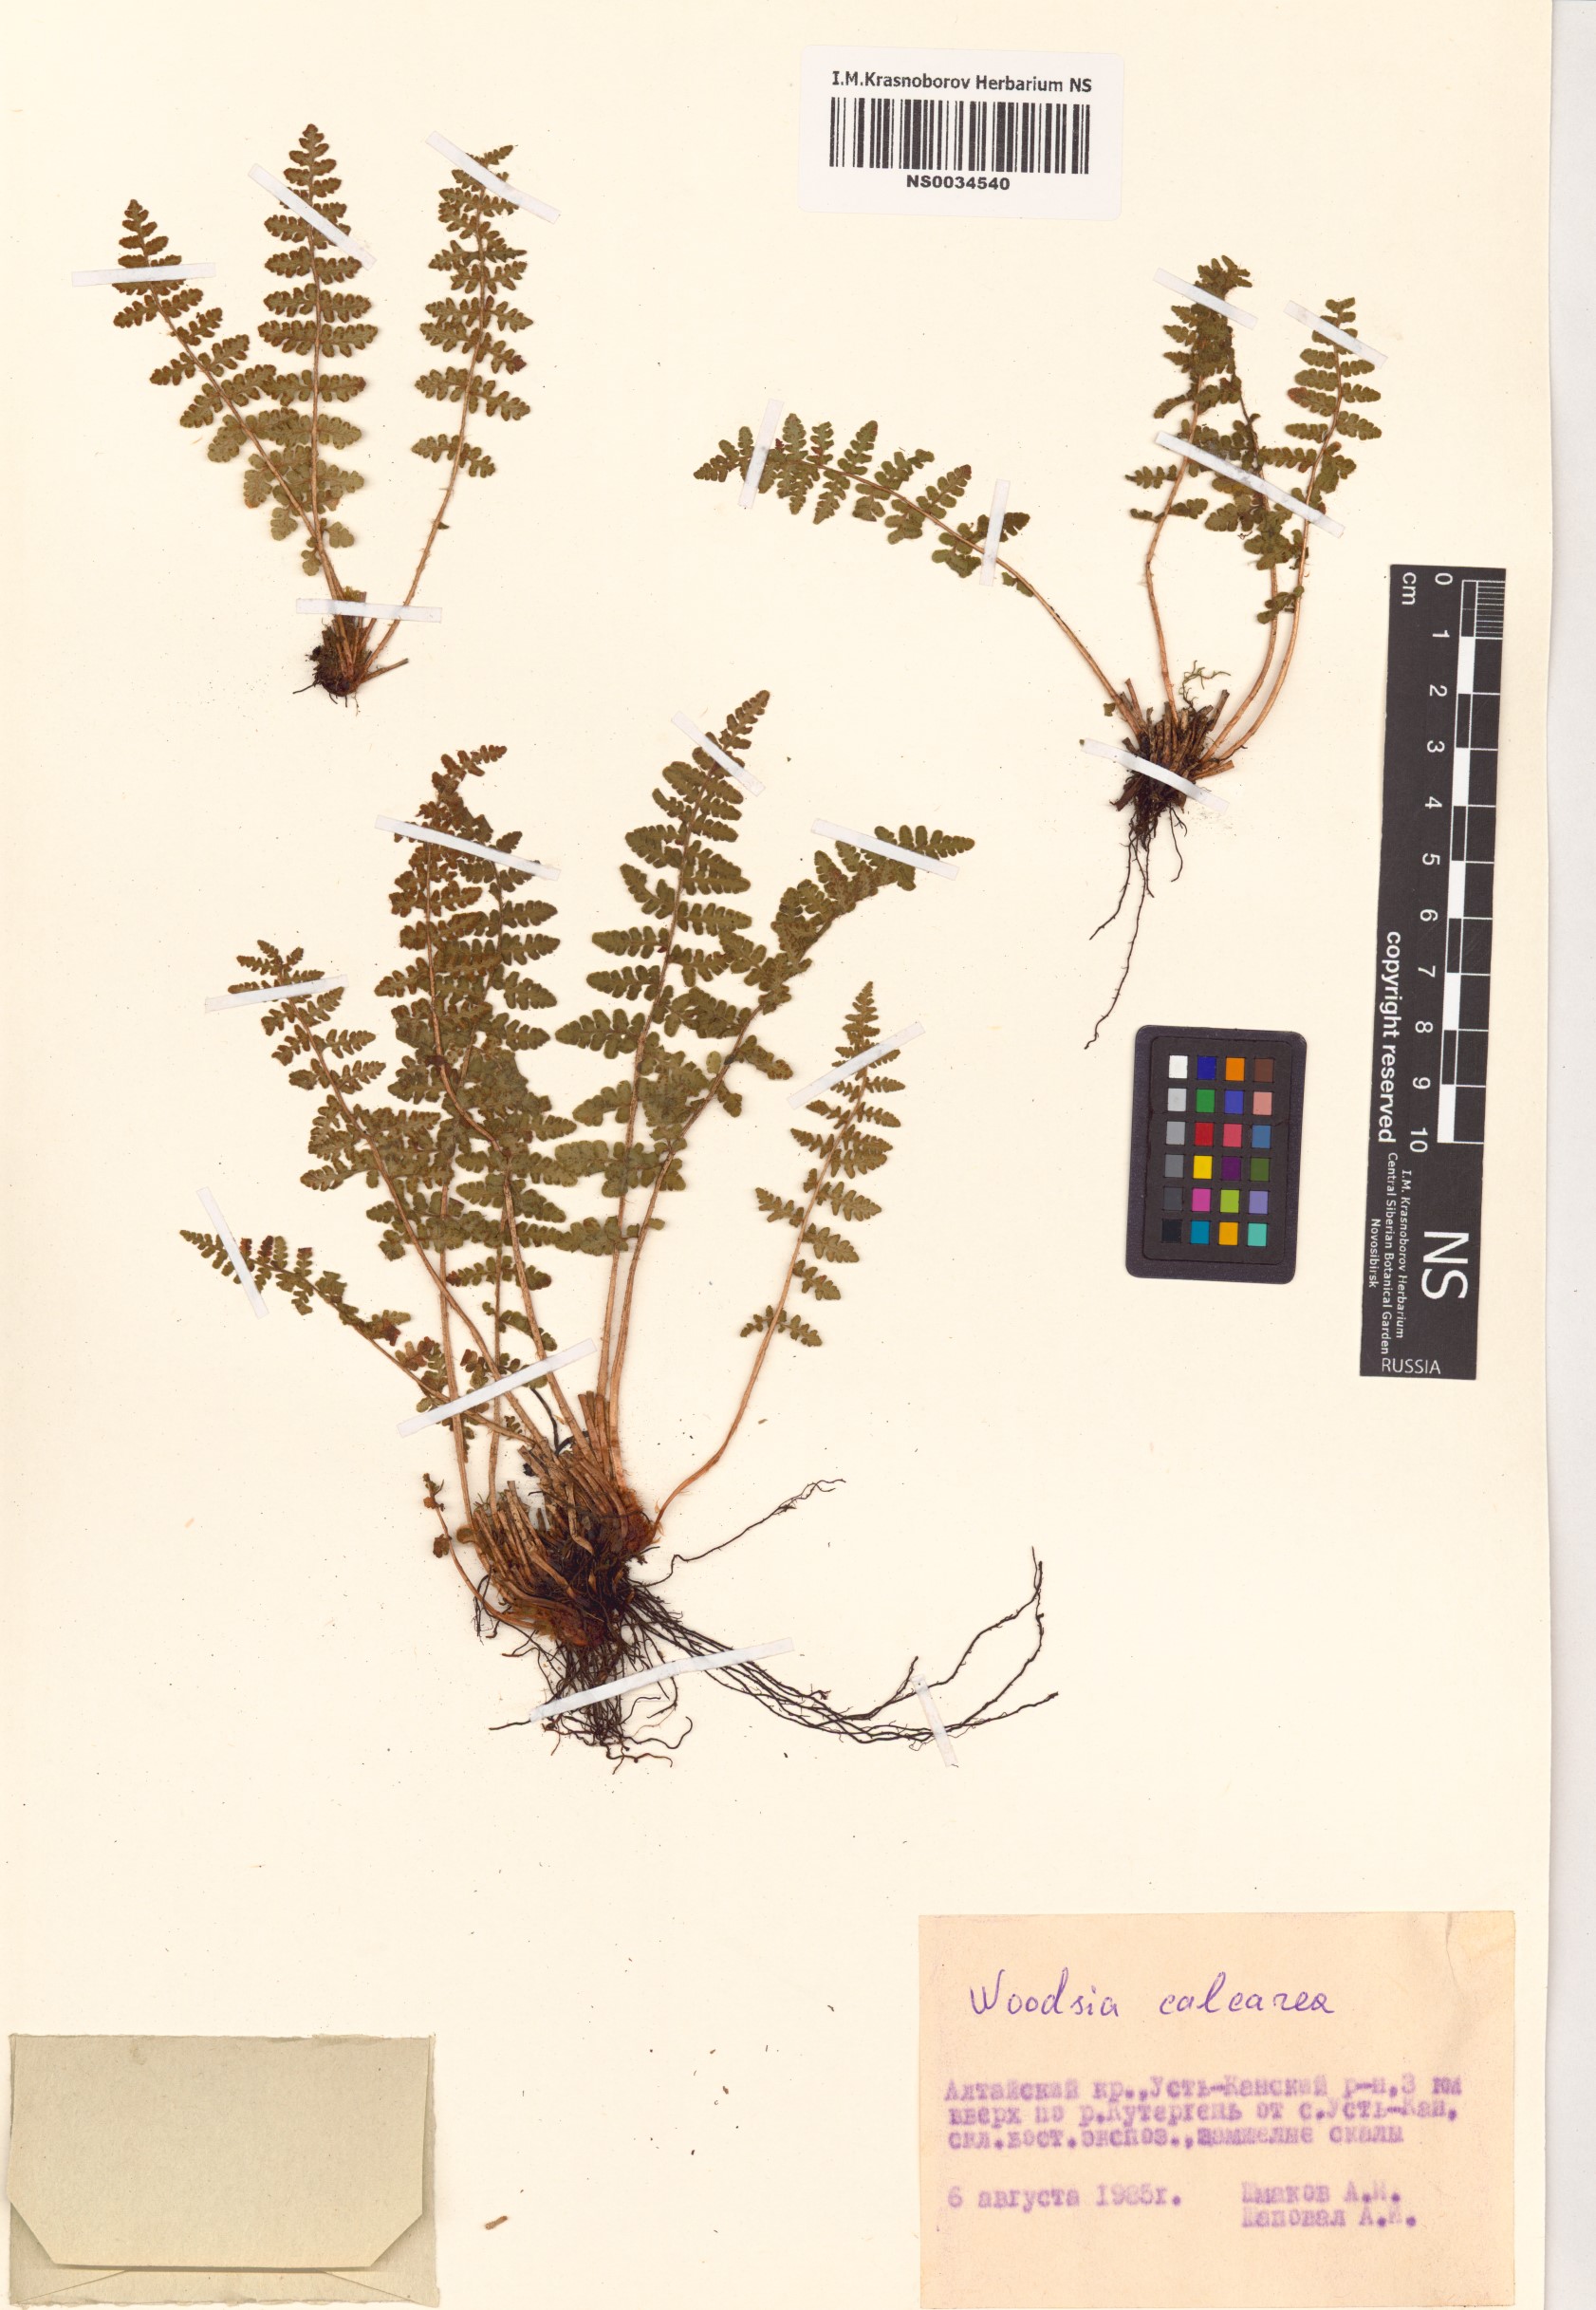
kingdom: Plantae
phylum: Tracheophyta
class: Polypodiopsida
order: Polypodiales
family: Woodsiaceae
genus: Woodsia
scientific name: Woodsia calcarea
